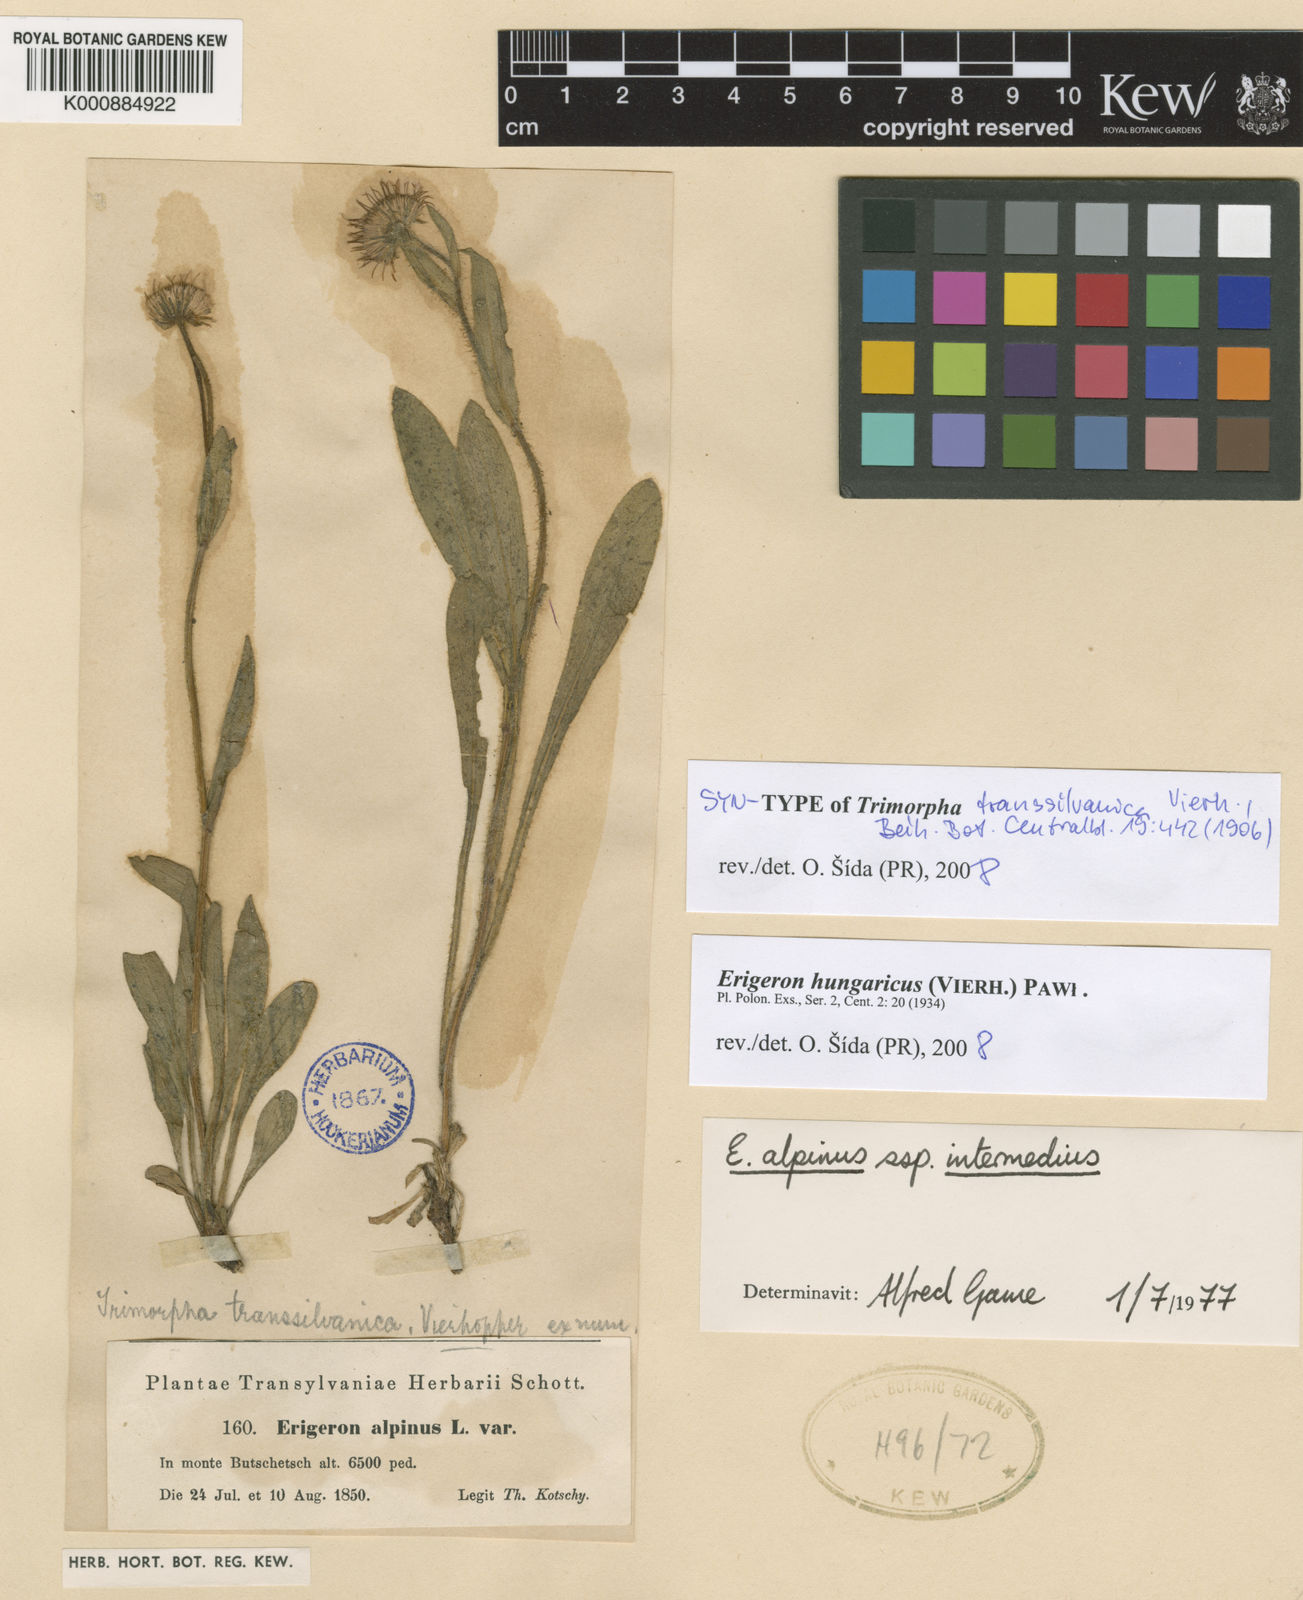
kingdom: Plantae
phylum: Tracheophyta
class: Magnoliopsida
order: Asterales
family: Asteraceae
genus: Erigeron
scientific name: Erigeron hungaricus
